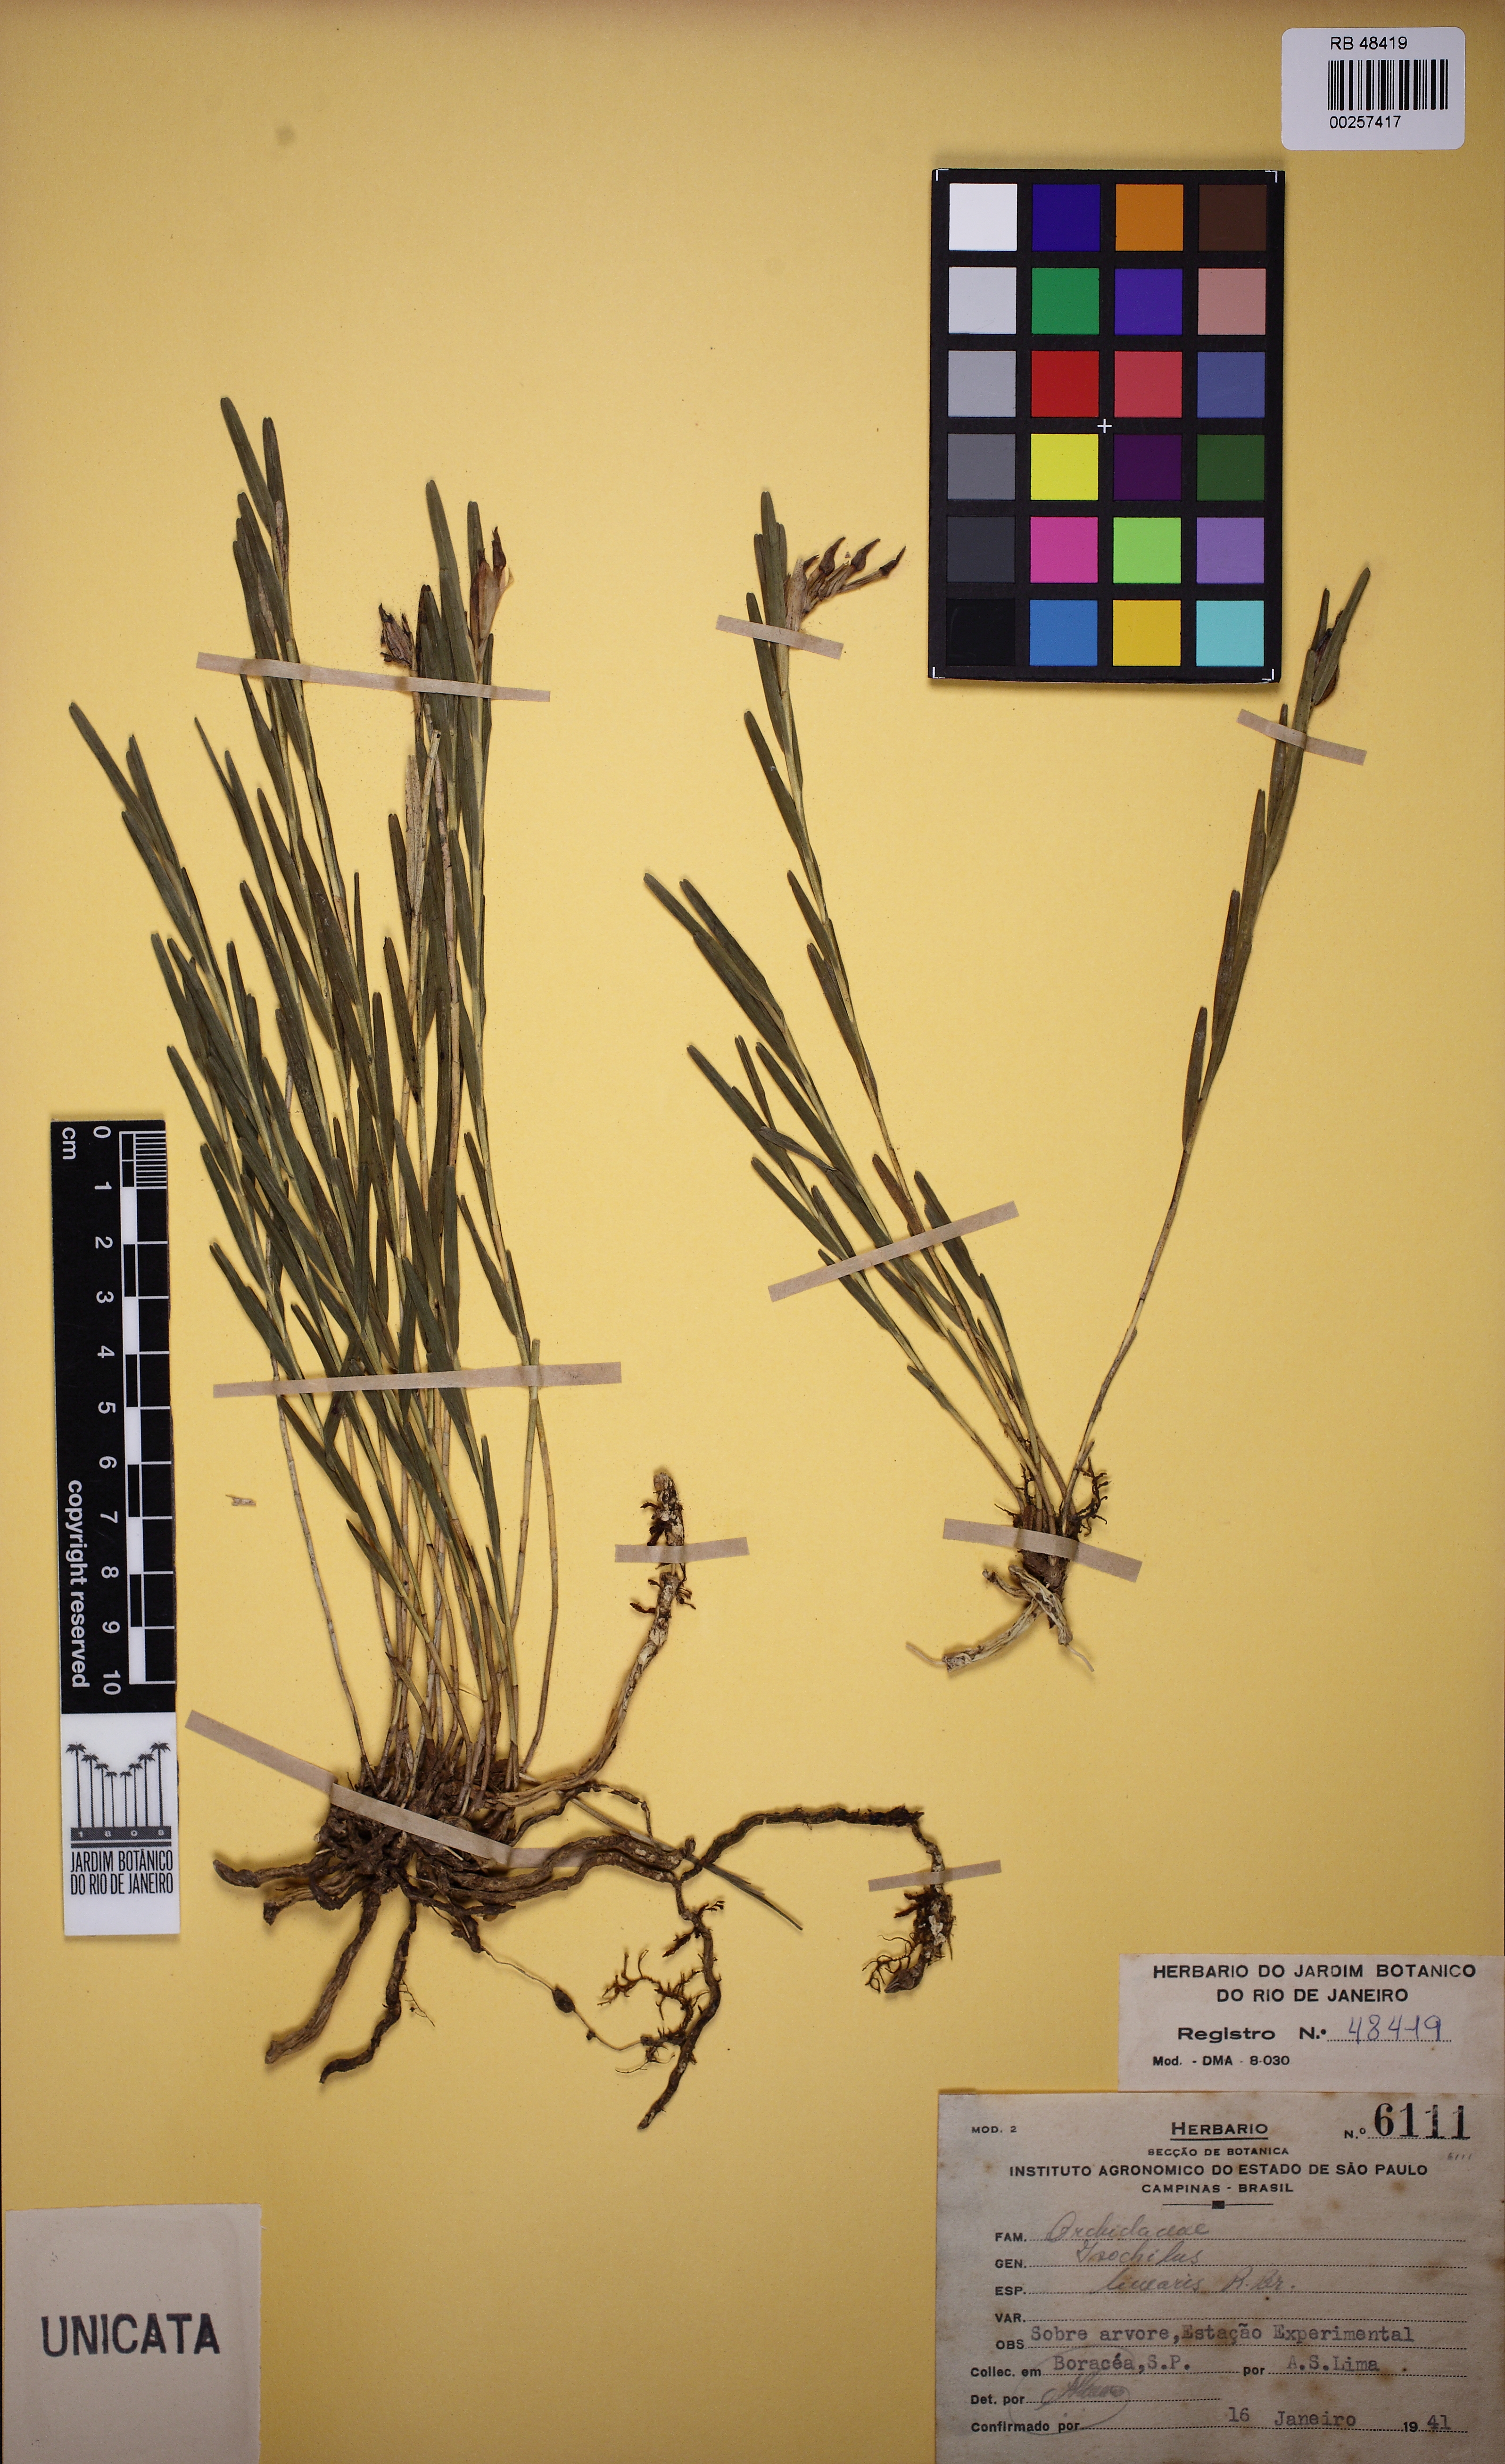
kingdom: Plantae
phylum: Tracheophyta
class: Liliopsida
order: Asparagales
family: Orchidaceae
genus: Isochilus
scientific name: Isochilus linearis
